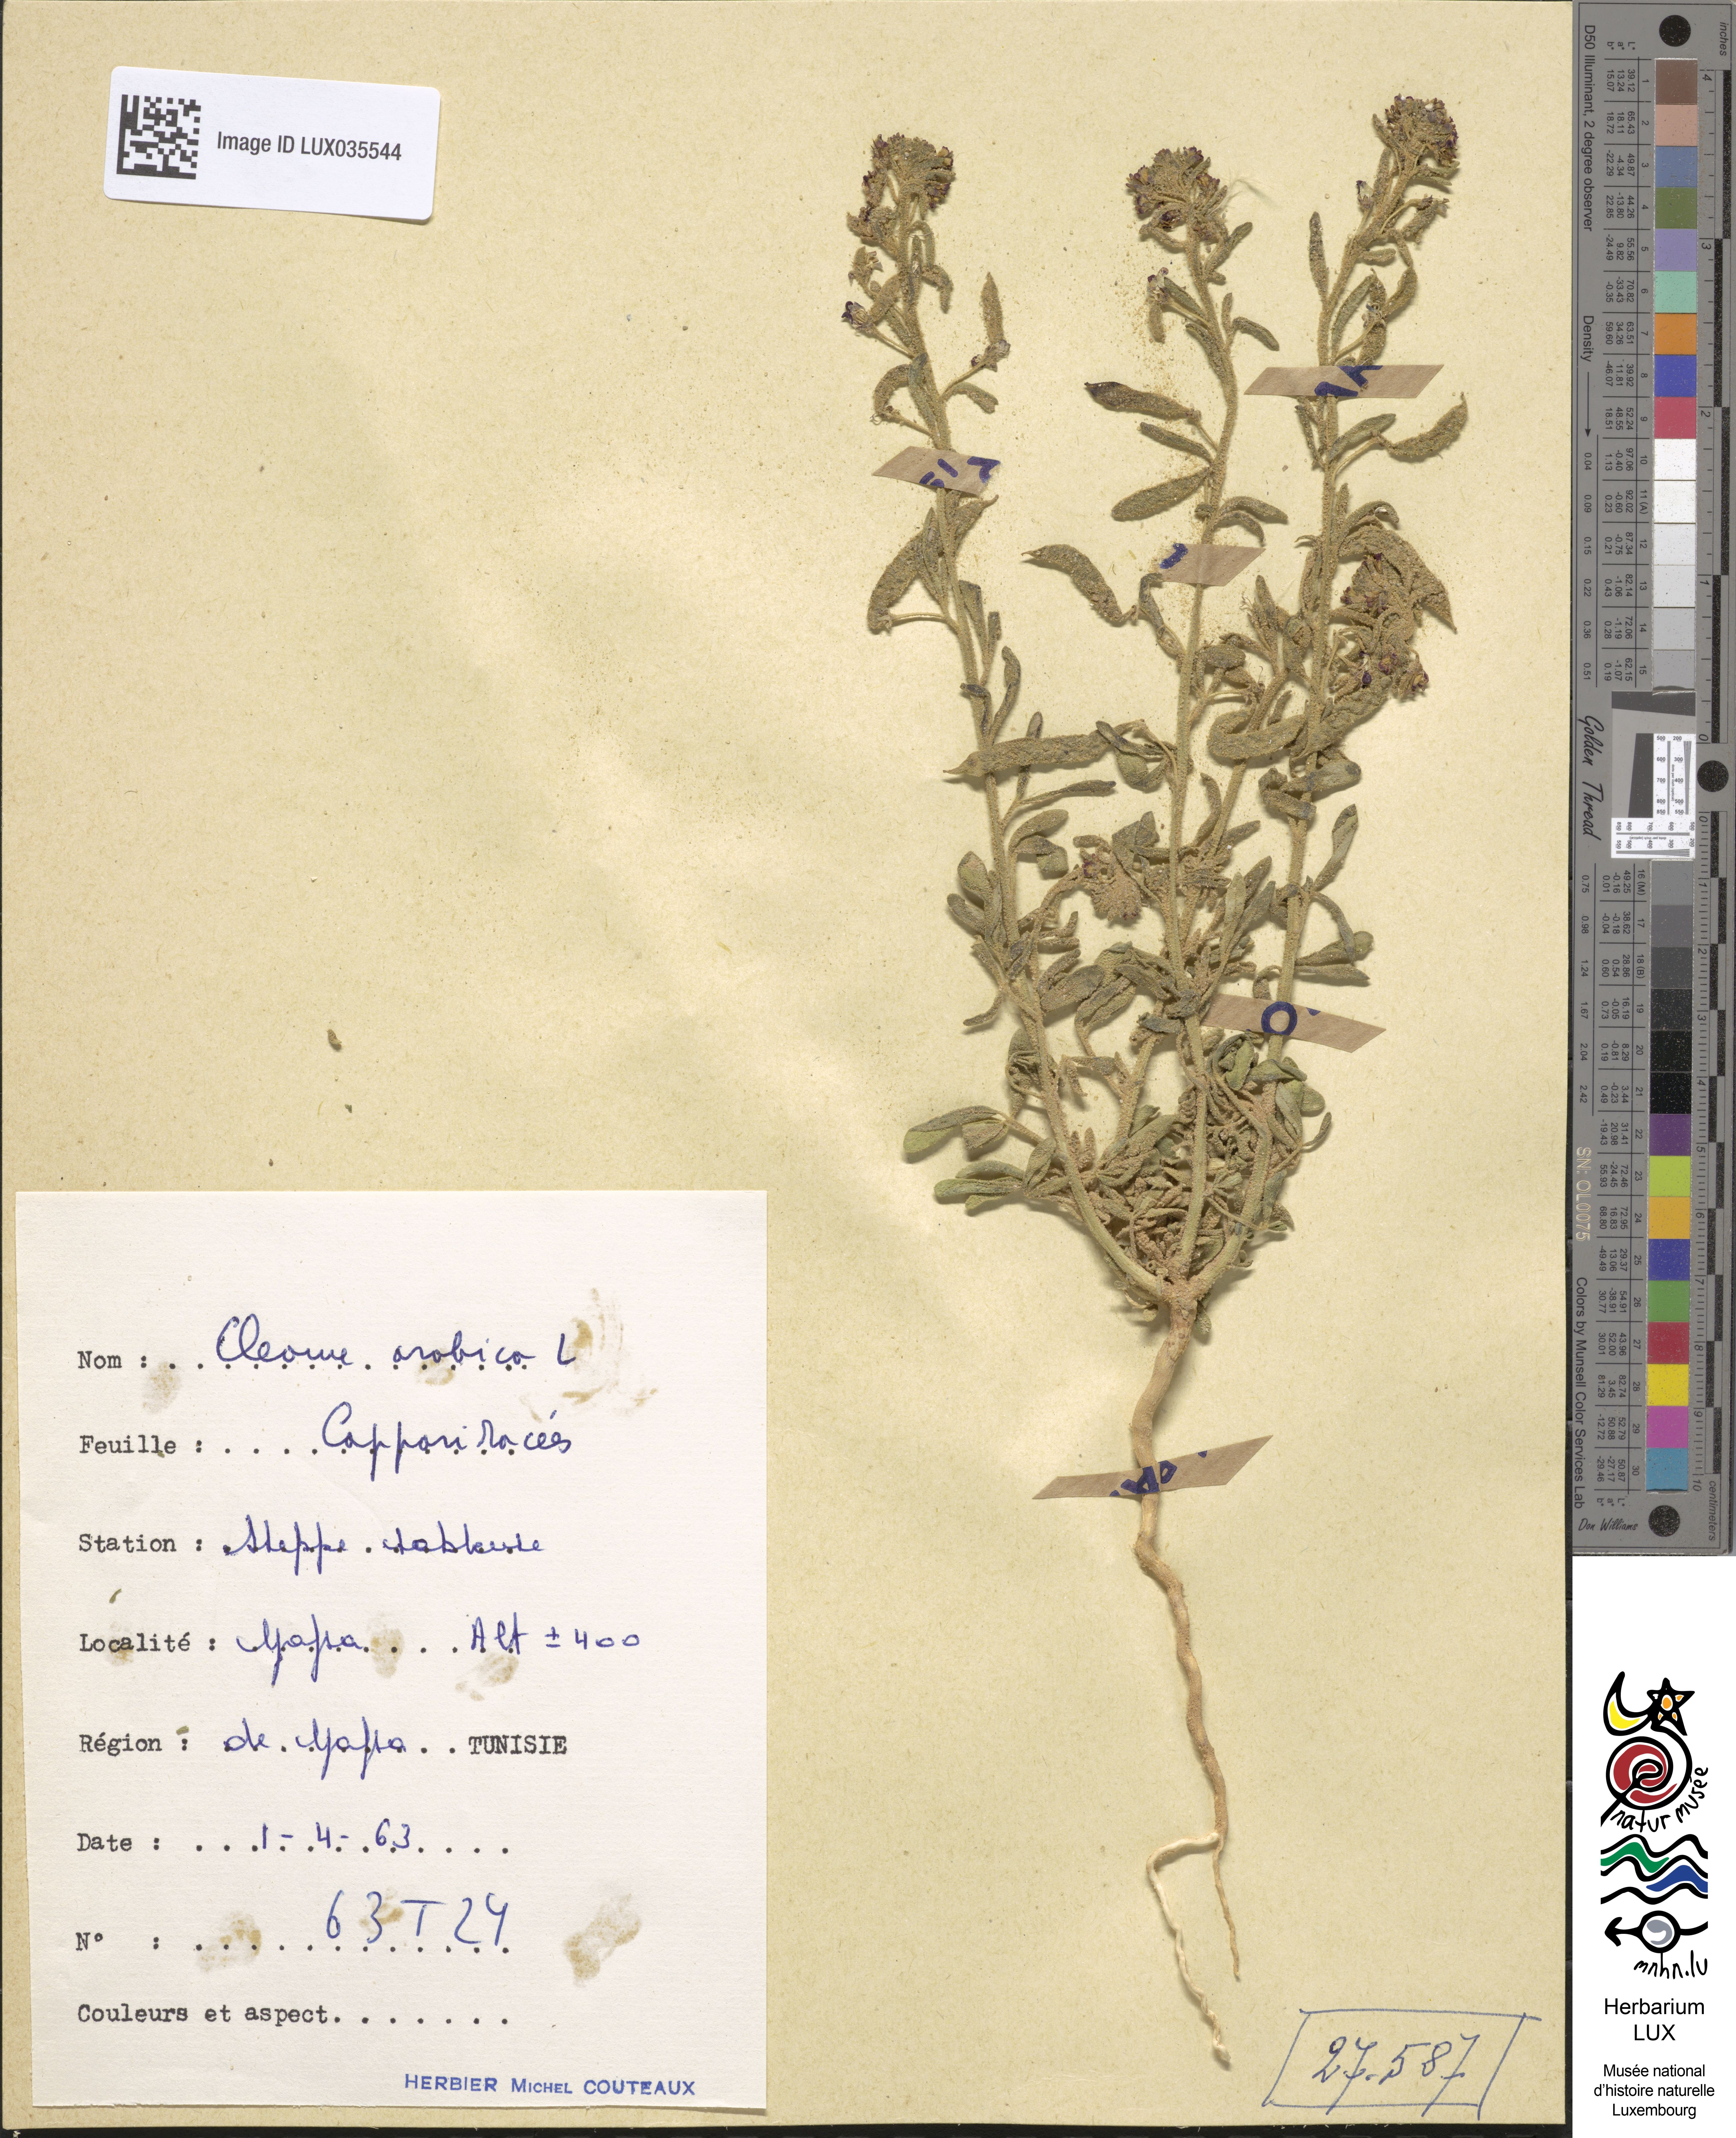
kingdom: Plantae
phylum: Tracheophyta
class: Magnoliopsida
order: Brassicales
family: Cleomaceae
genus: Cleome
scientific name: Cleome arabica
